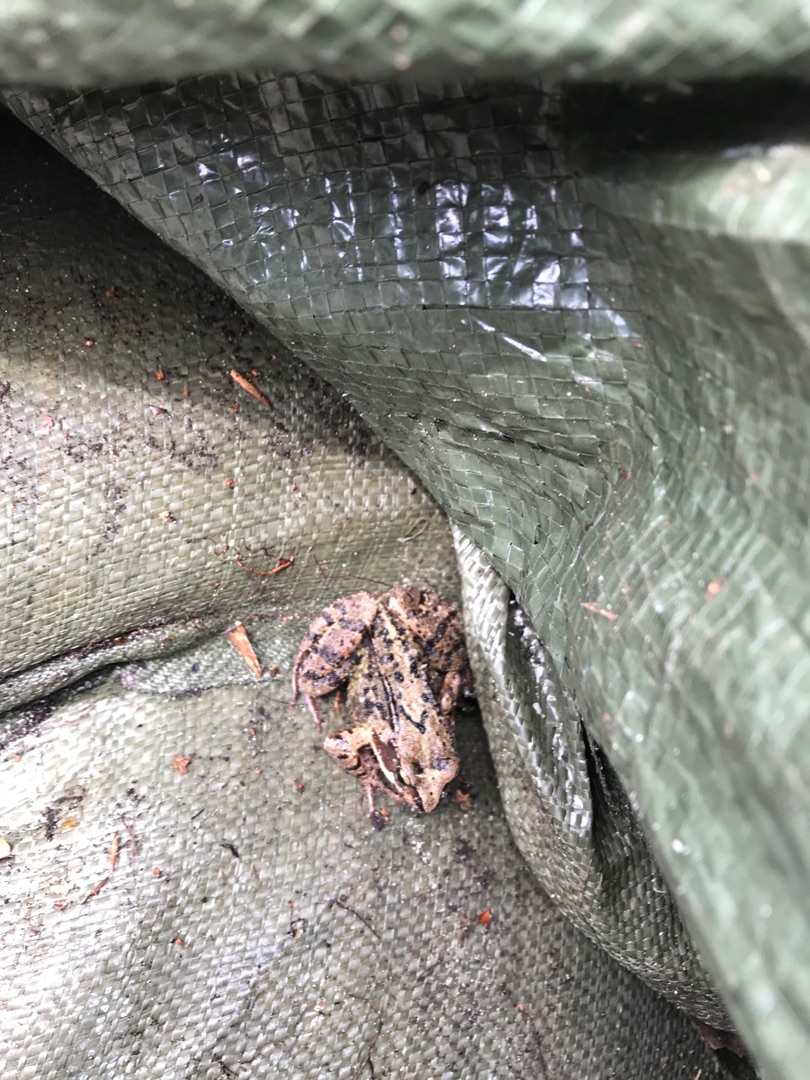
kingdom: Animalia
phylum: Chordata
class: Amphibia
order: Anura
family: Ranidae
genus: Rana
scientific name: Rana temporaria
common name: Butsnudet frø
